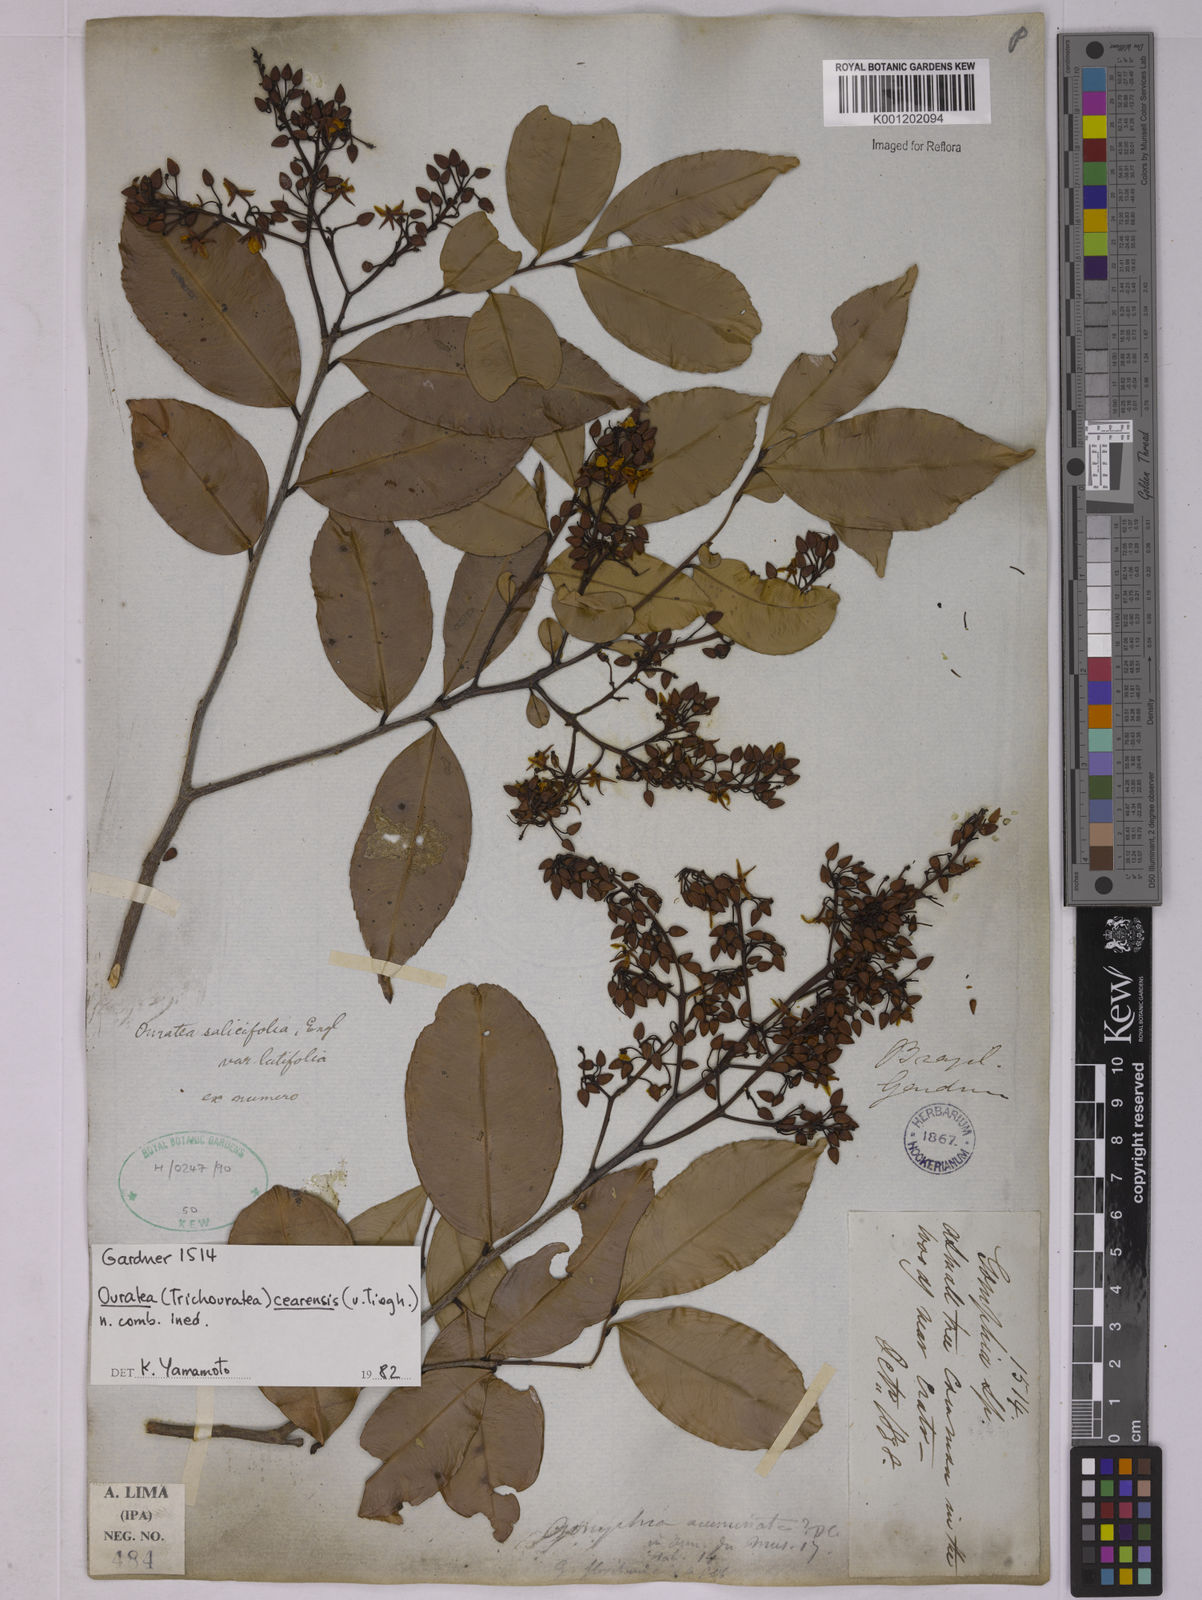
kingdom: Plantae
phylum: Tracheophyta
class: Magnoliopsida
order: Malpighiales
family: Ochnaceae
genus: Ouratea
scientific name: Ouratea cearensis
